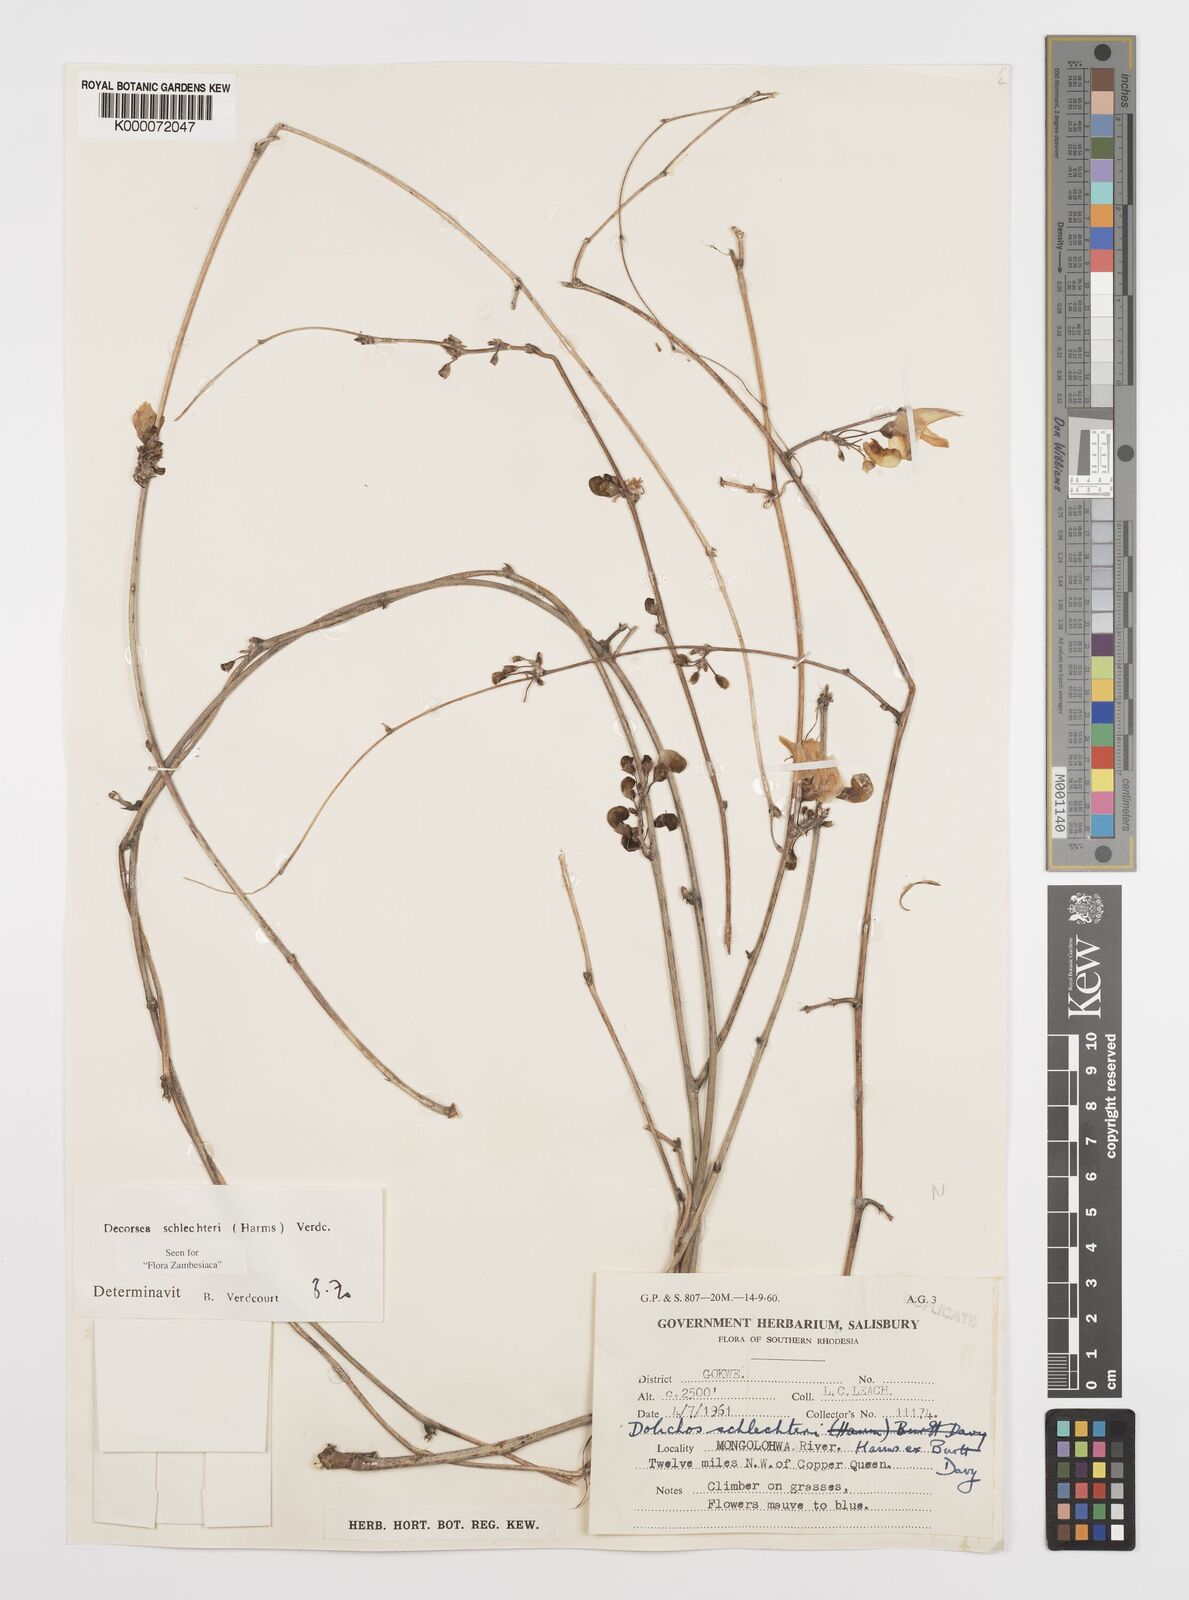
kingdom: Plantae
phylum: Tracheophyta
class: Magnoliopsida
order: Fabales
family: Fabaceae
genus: Decorsea
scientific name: Decorsea schlechteri
